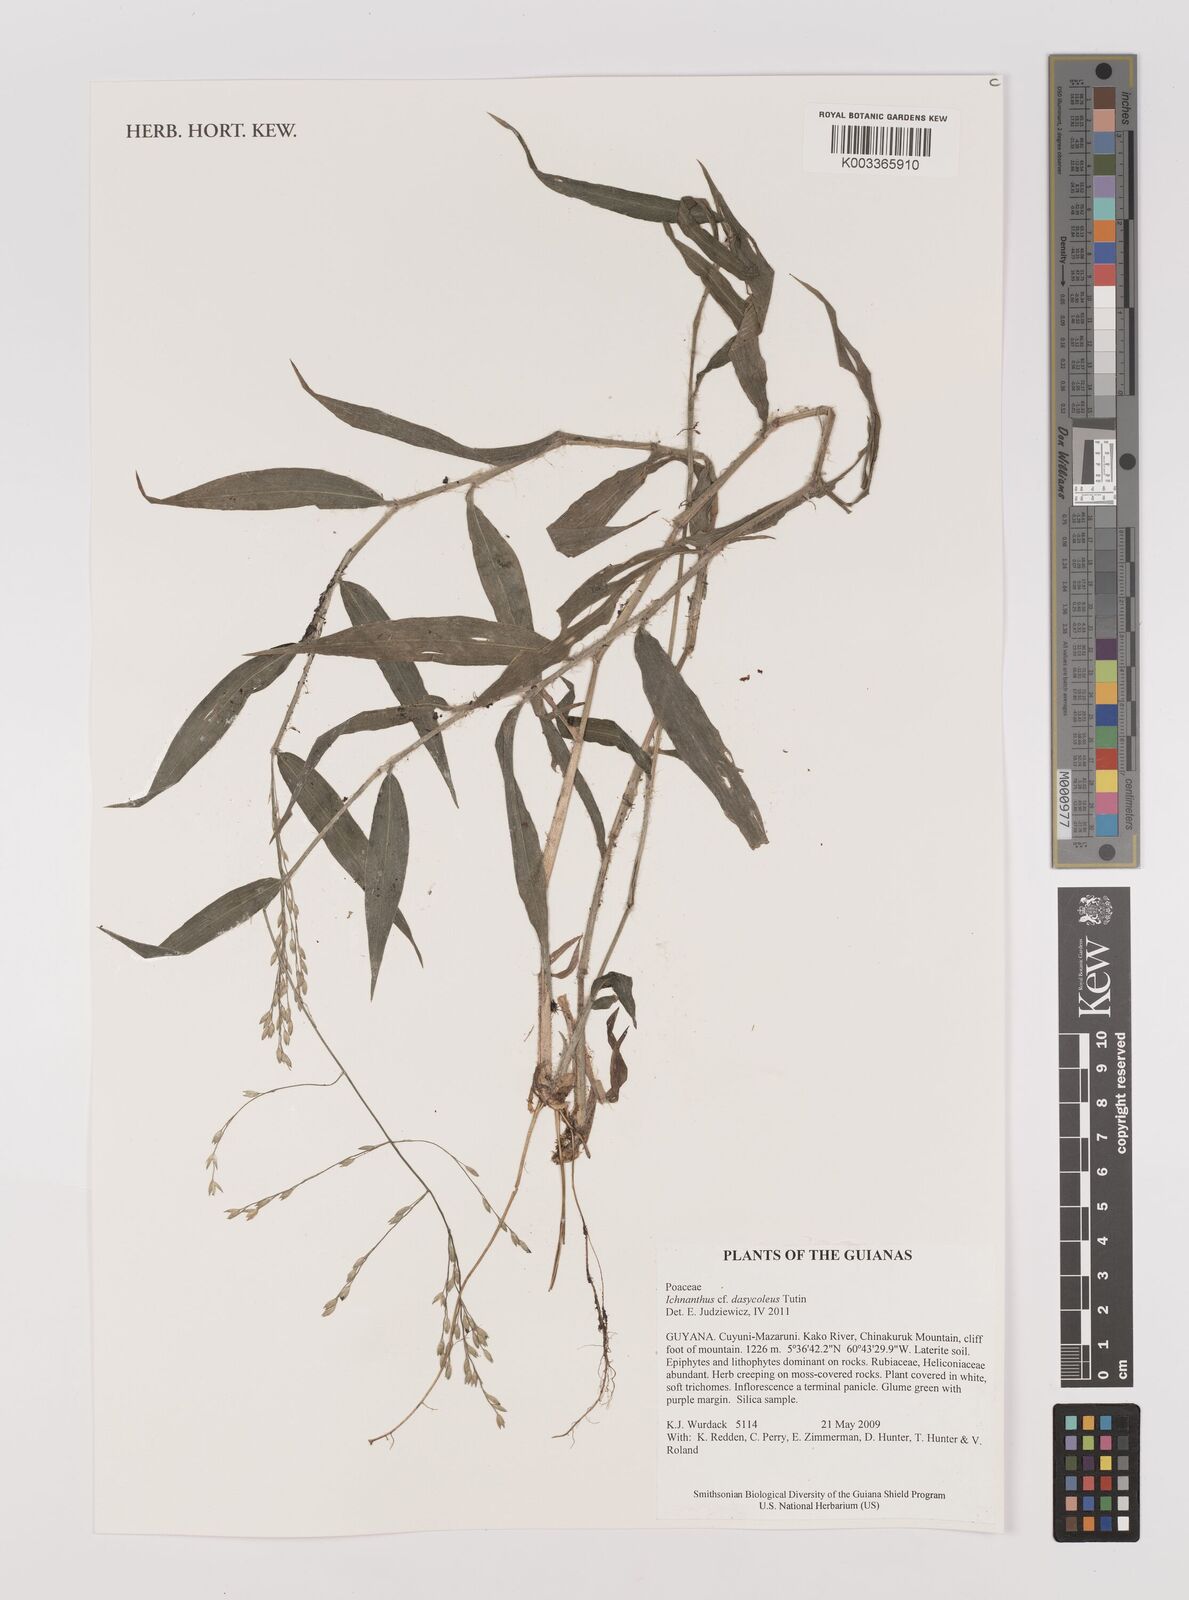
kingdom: Plantae
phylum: Tracheophyta
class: Liliopsida
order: Poales
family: Poaceae
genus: Ichnanthus
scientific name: Ichnanthus dasycoleus
